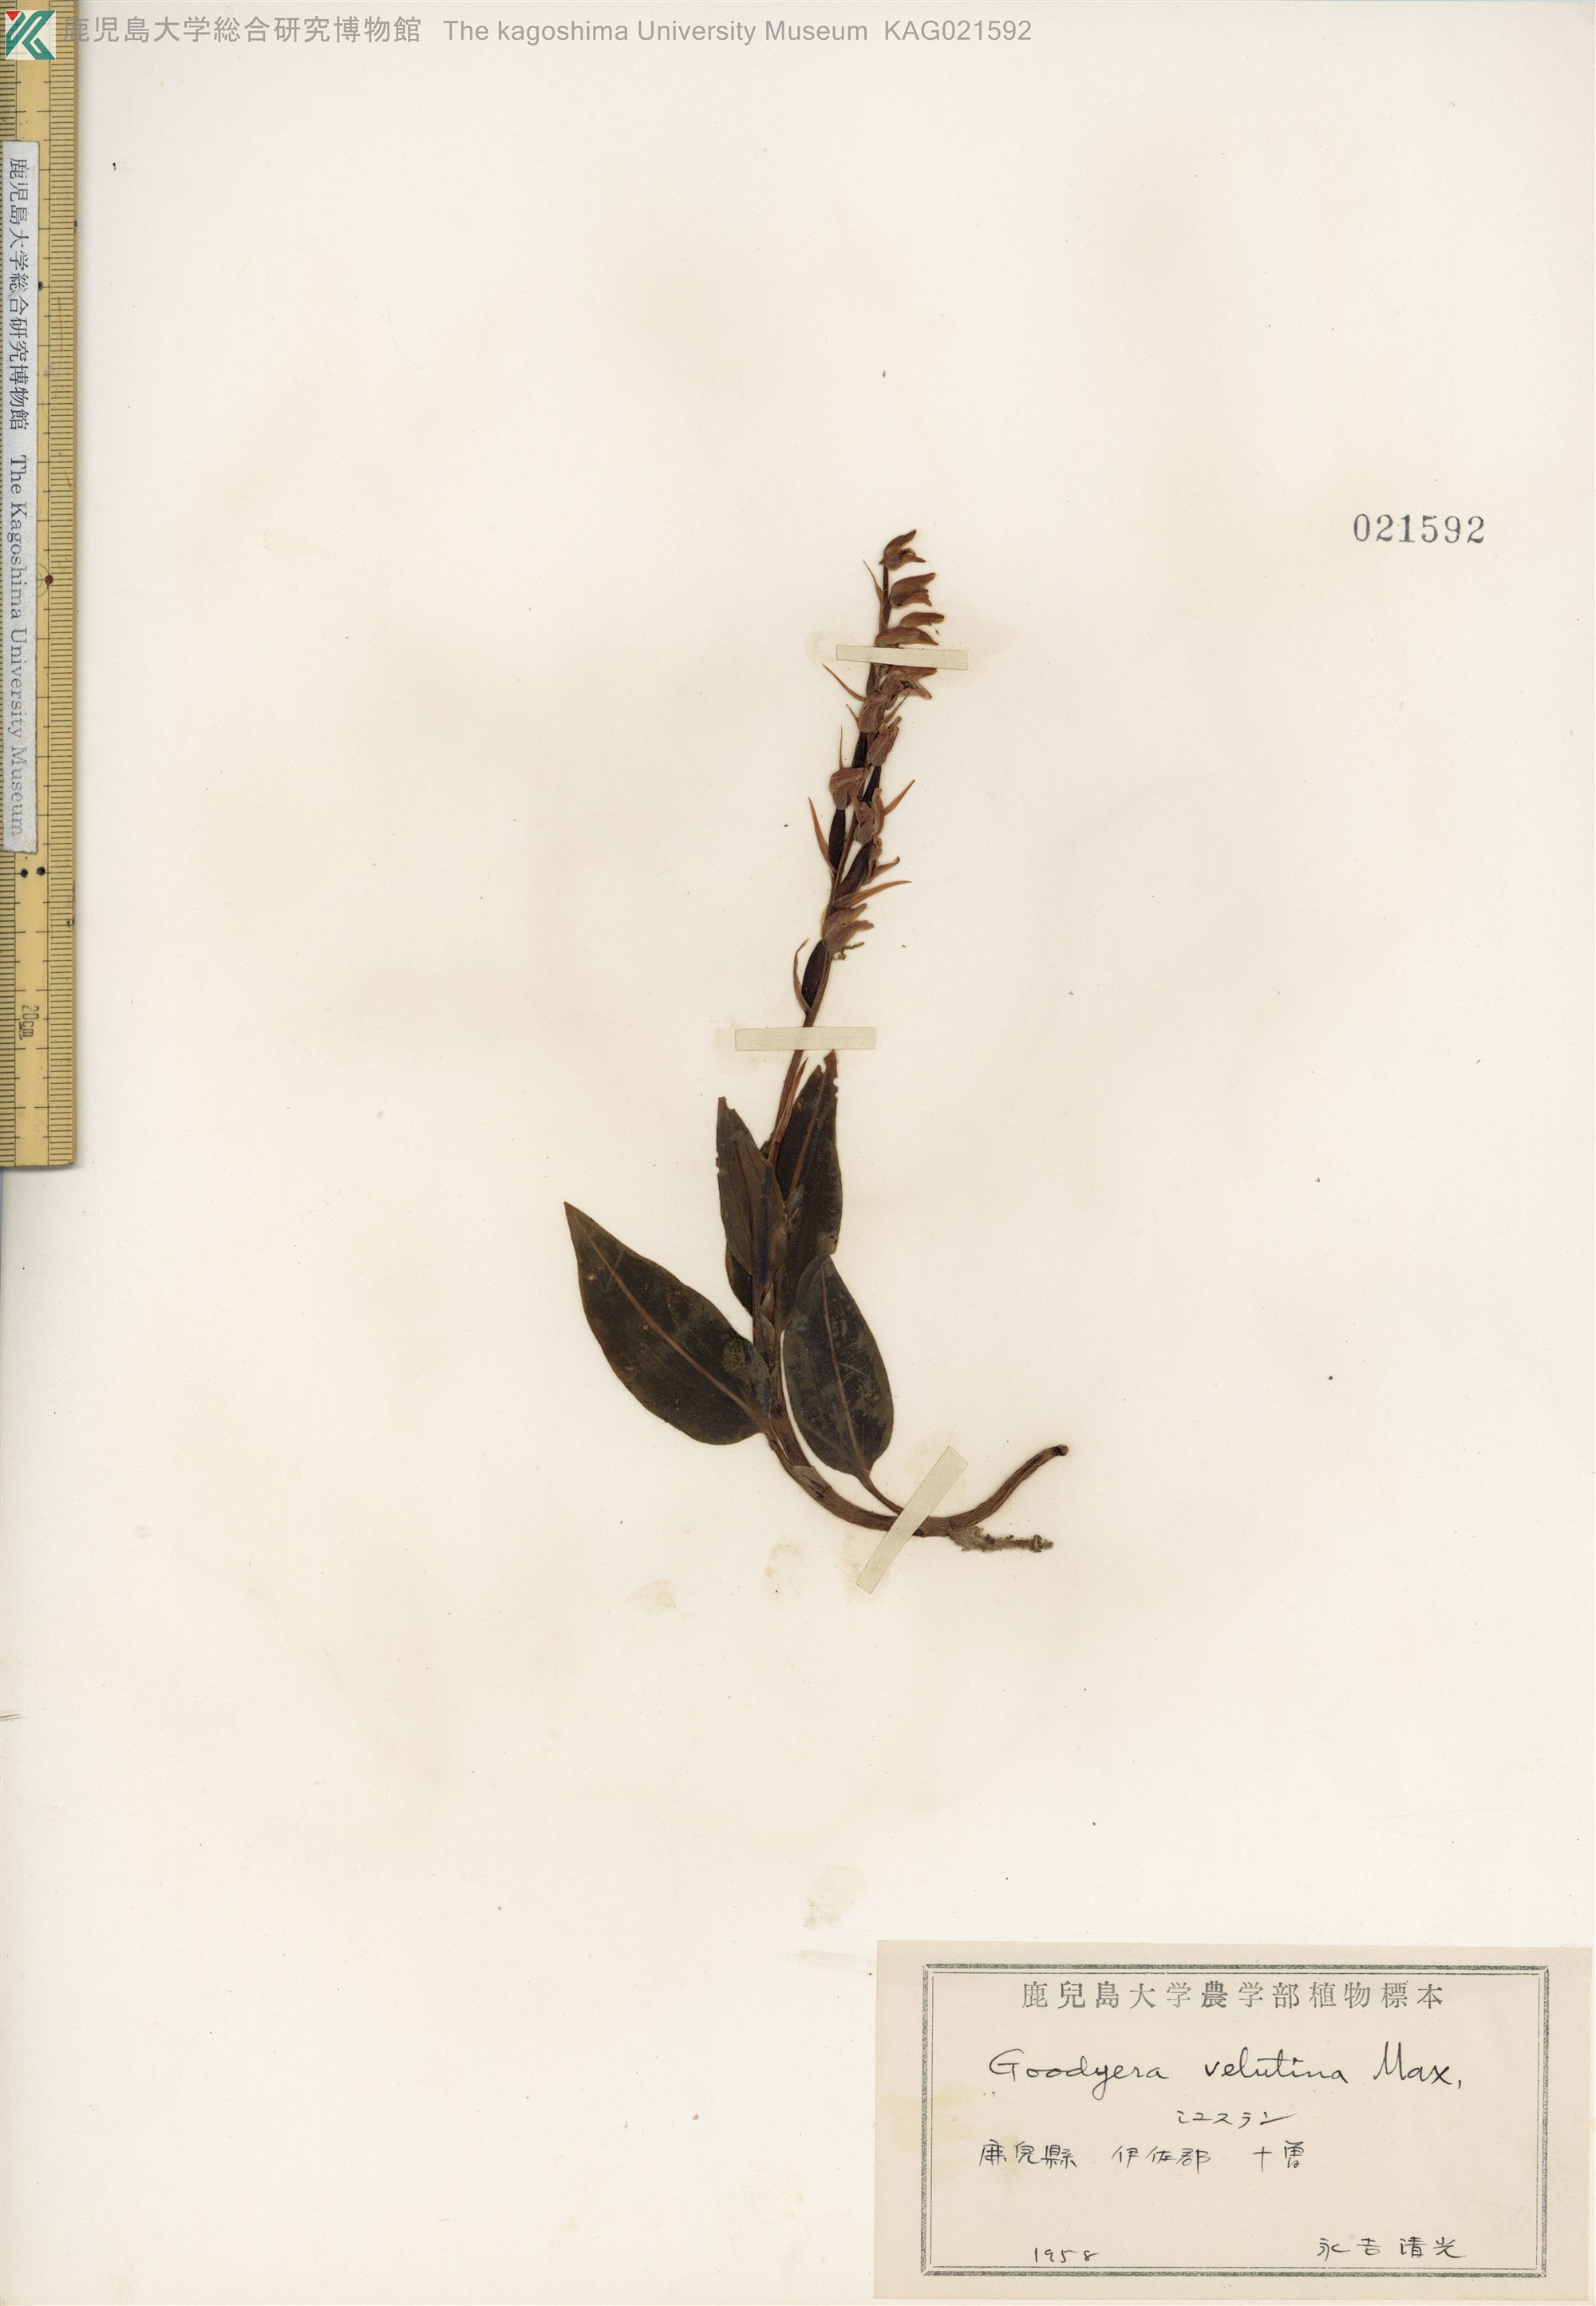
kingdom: Plantae
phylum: Tracheophyta
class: Liliopsida
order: Asparagales
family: Orchidaceae
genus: Goodyera
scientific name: Goodyera velutina
